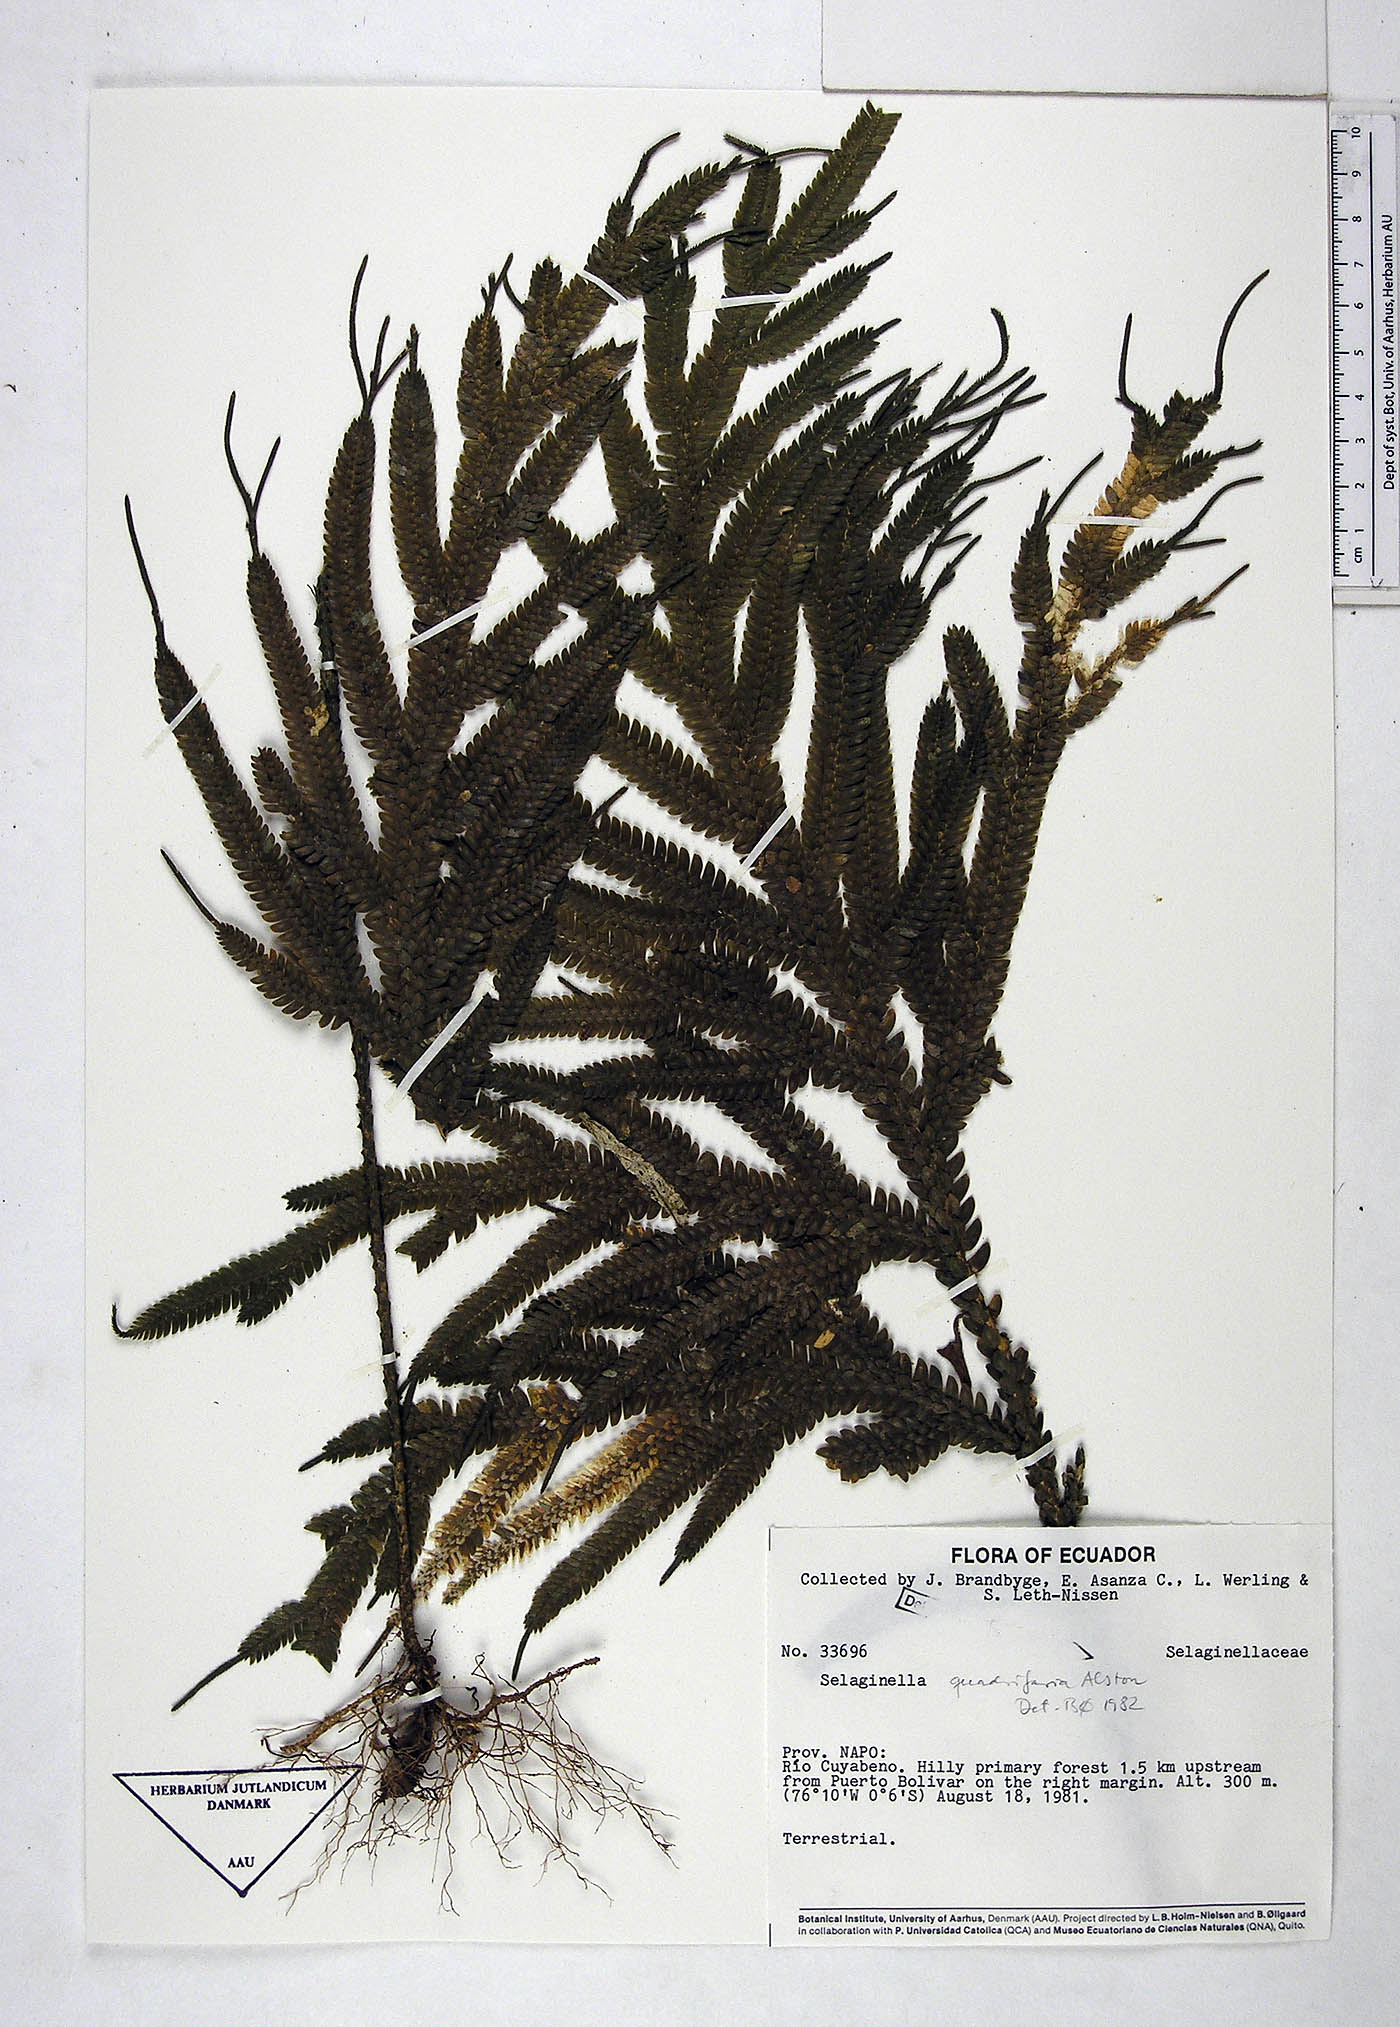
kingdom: Plantae
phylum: Tracheophyta
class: Lycopodiopsida
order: Selaginellales
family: Selaginellaceae
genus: Selaginella
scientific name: Selaginella quadrifaria
